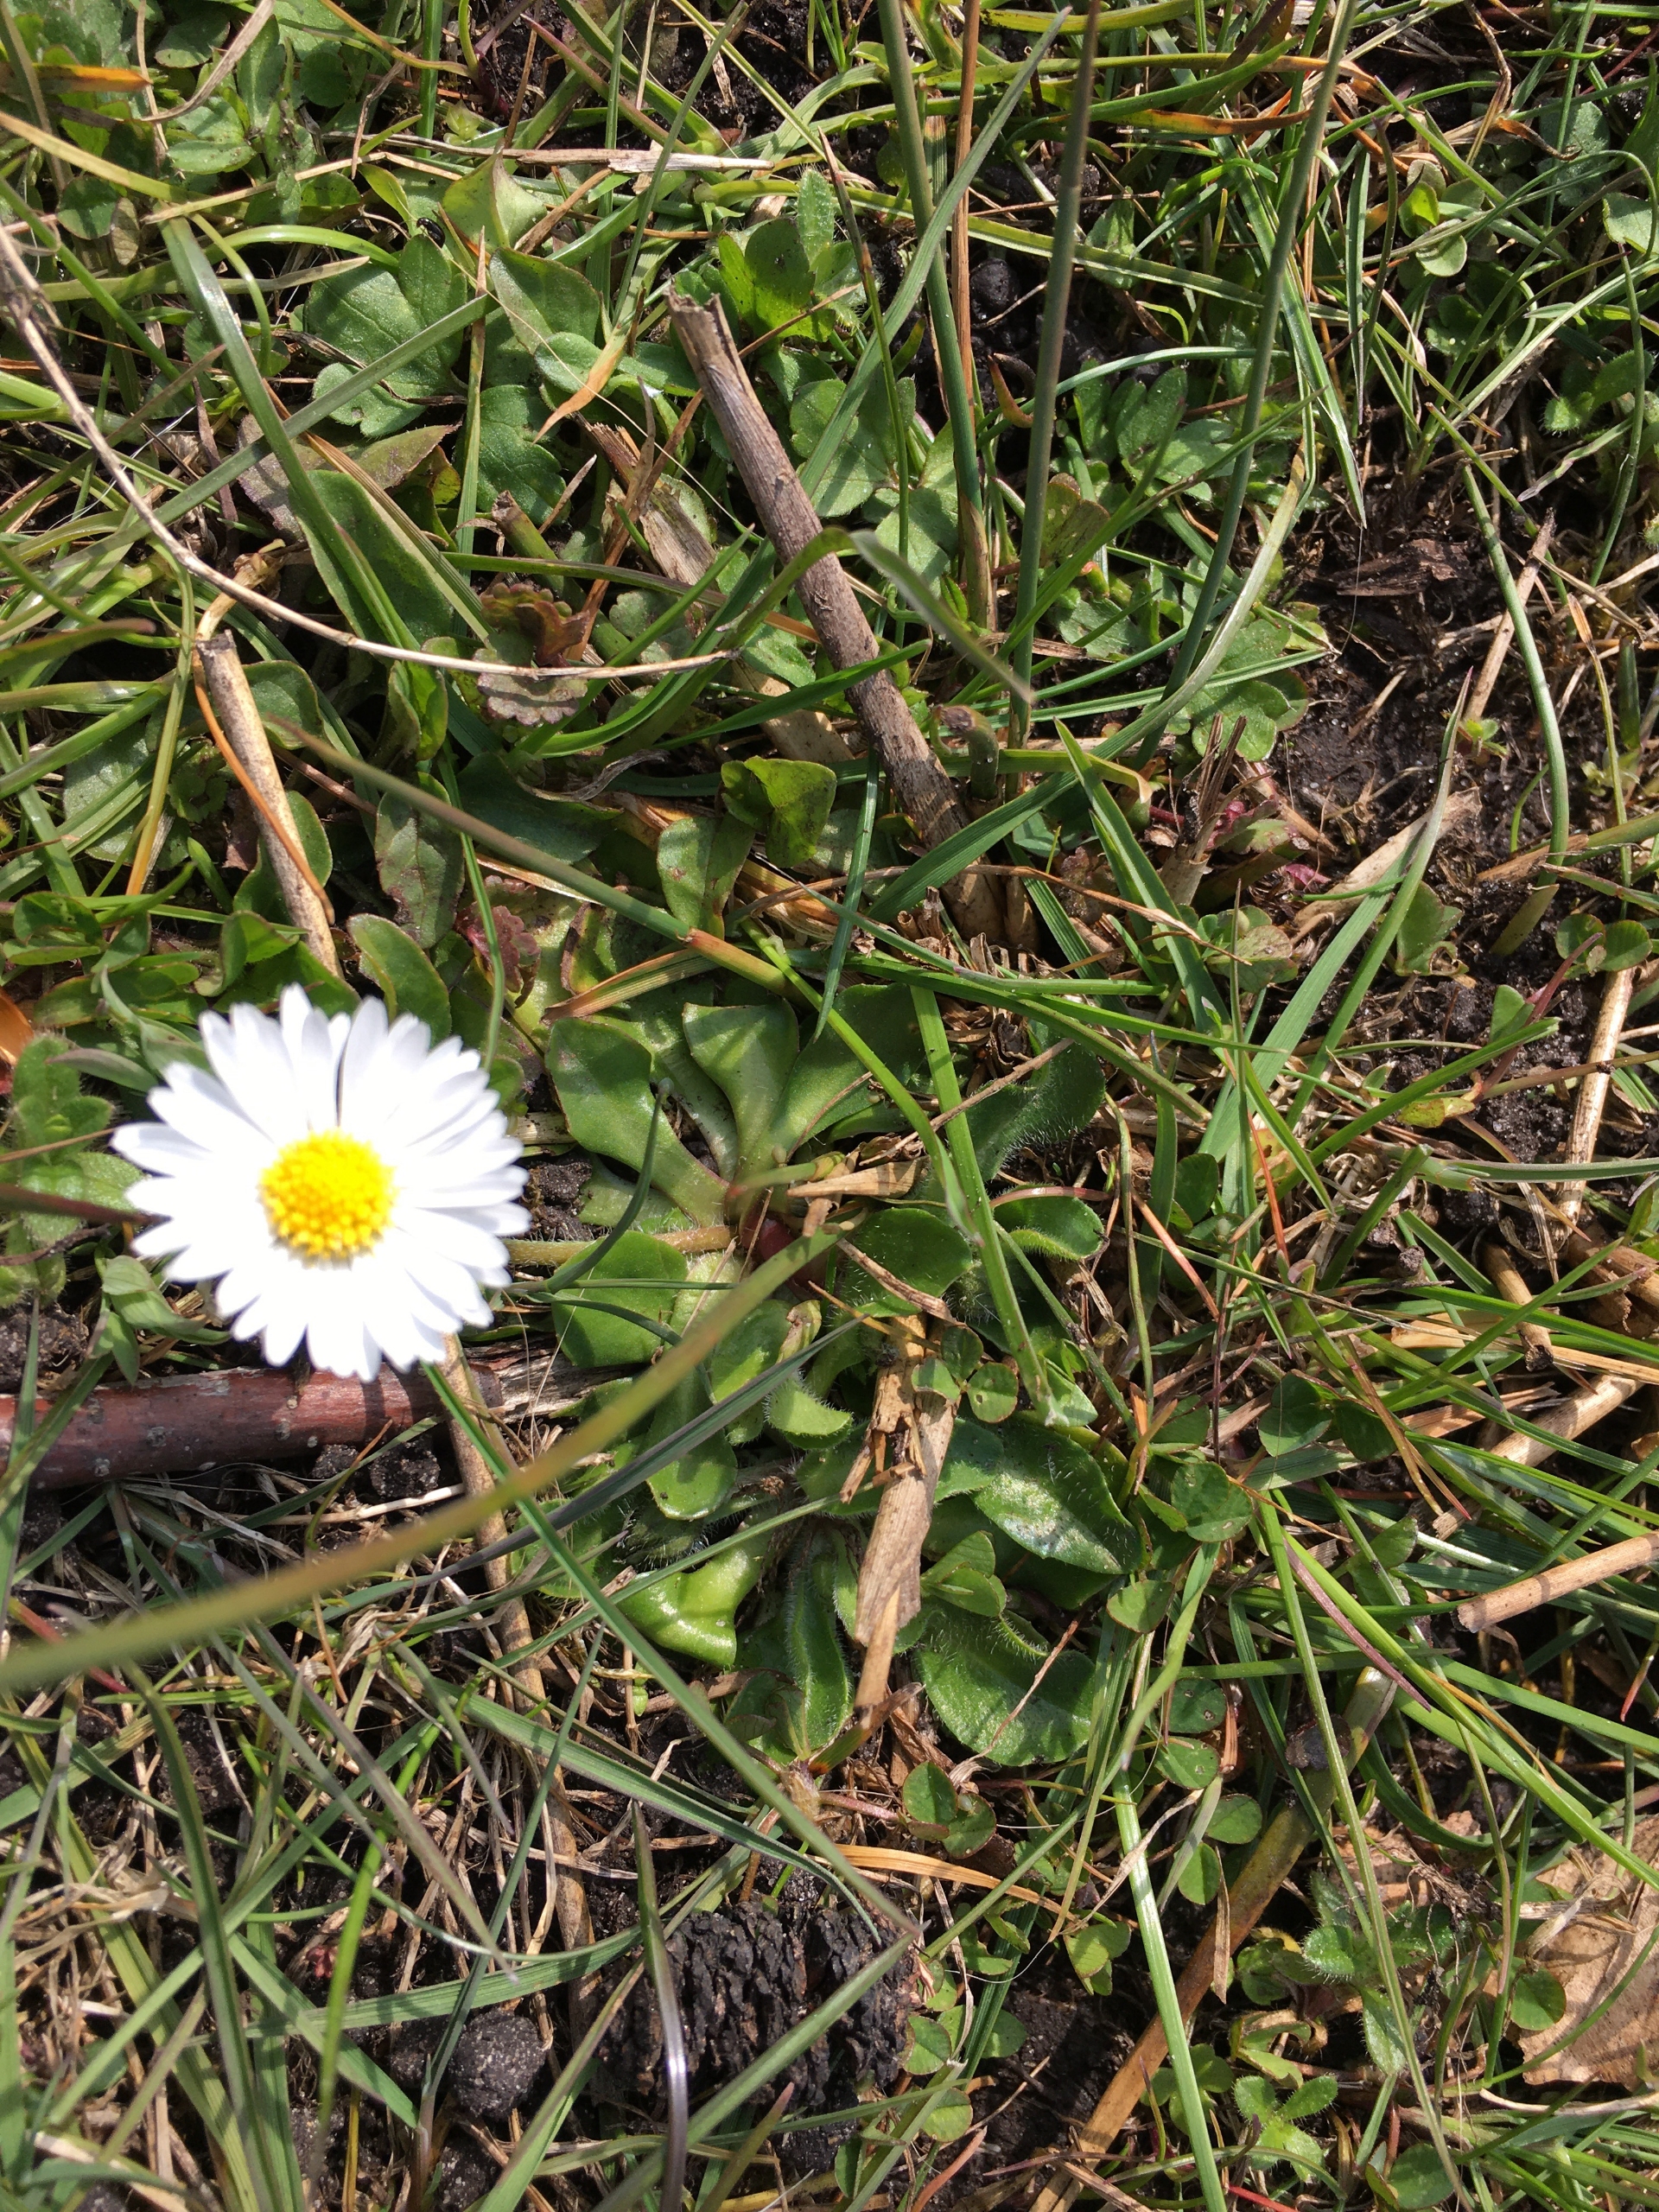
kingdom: Plantae
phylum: Tracheophyta
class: Magnoliopsida
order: Asterales
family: Asteraceae
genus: Bellis
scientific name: Bellis perennis
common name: Tusindfryd
